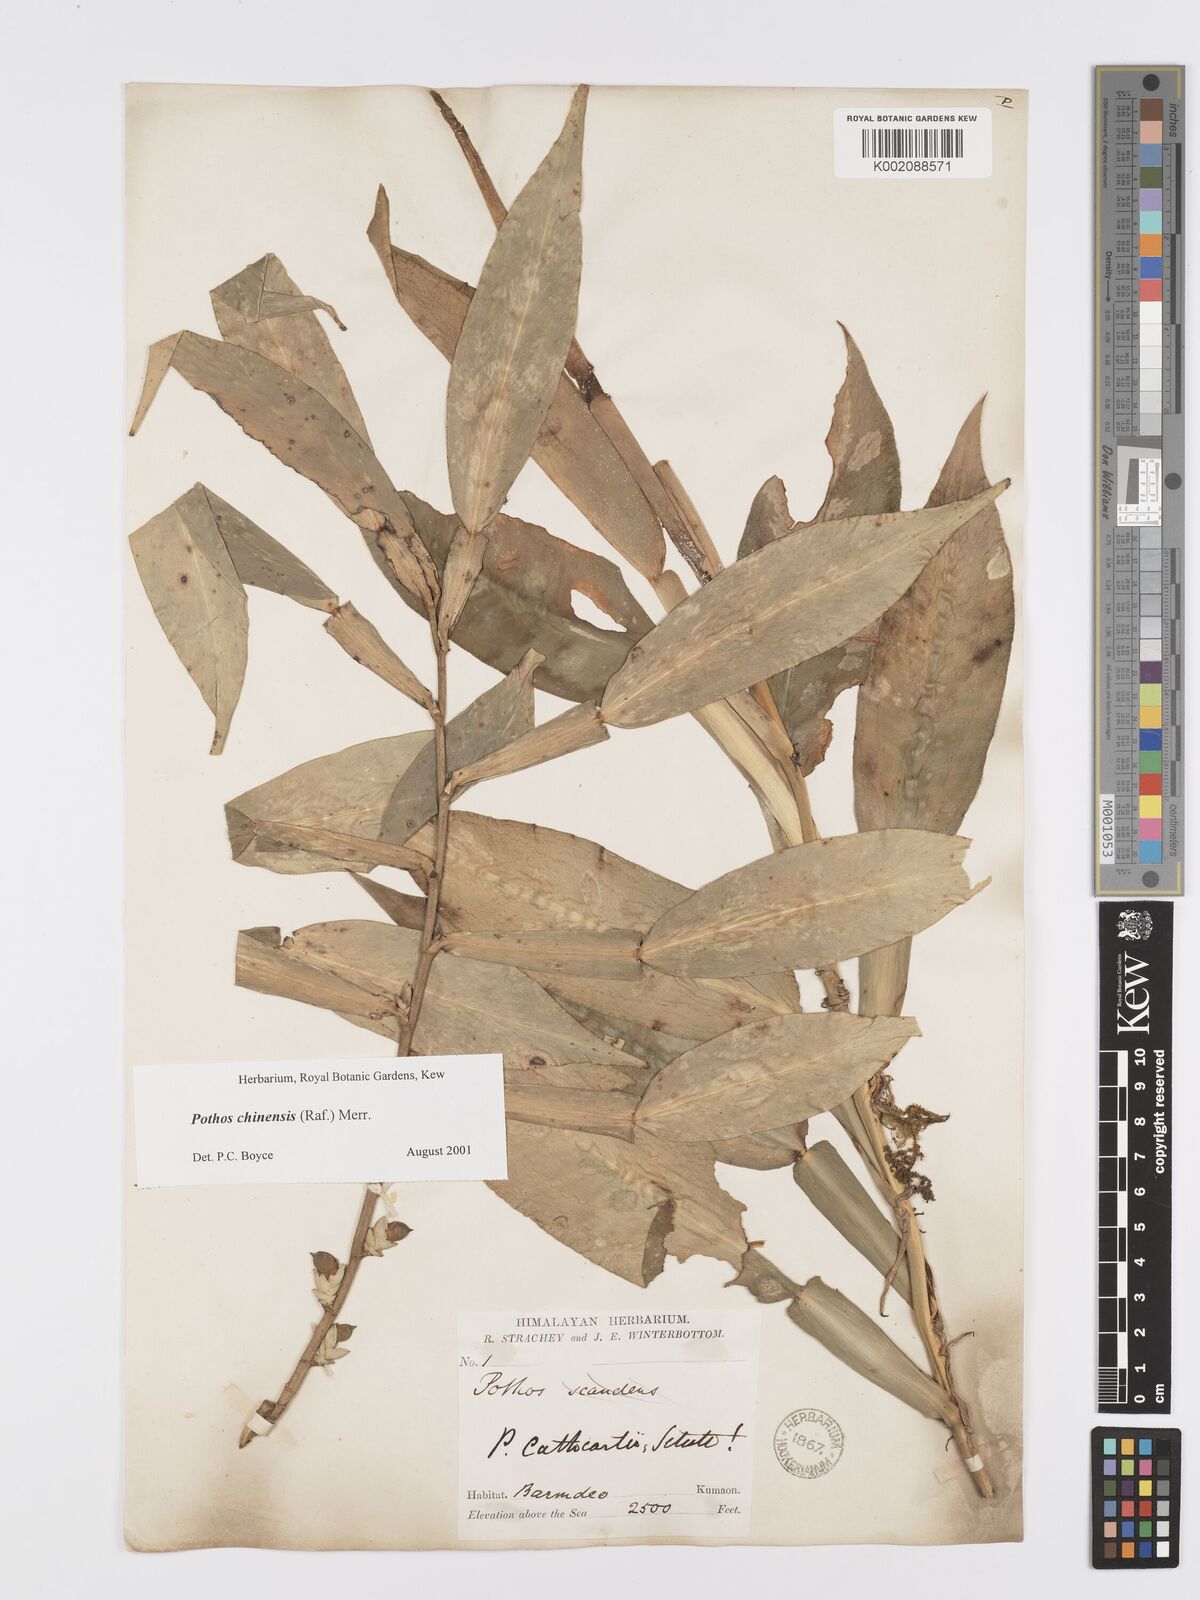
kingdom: Plantae
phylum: Tracheophyta
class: Liliopsida
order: Alismatales
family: Araceae
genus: Pothos
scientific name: Pothos chinensis
